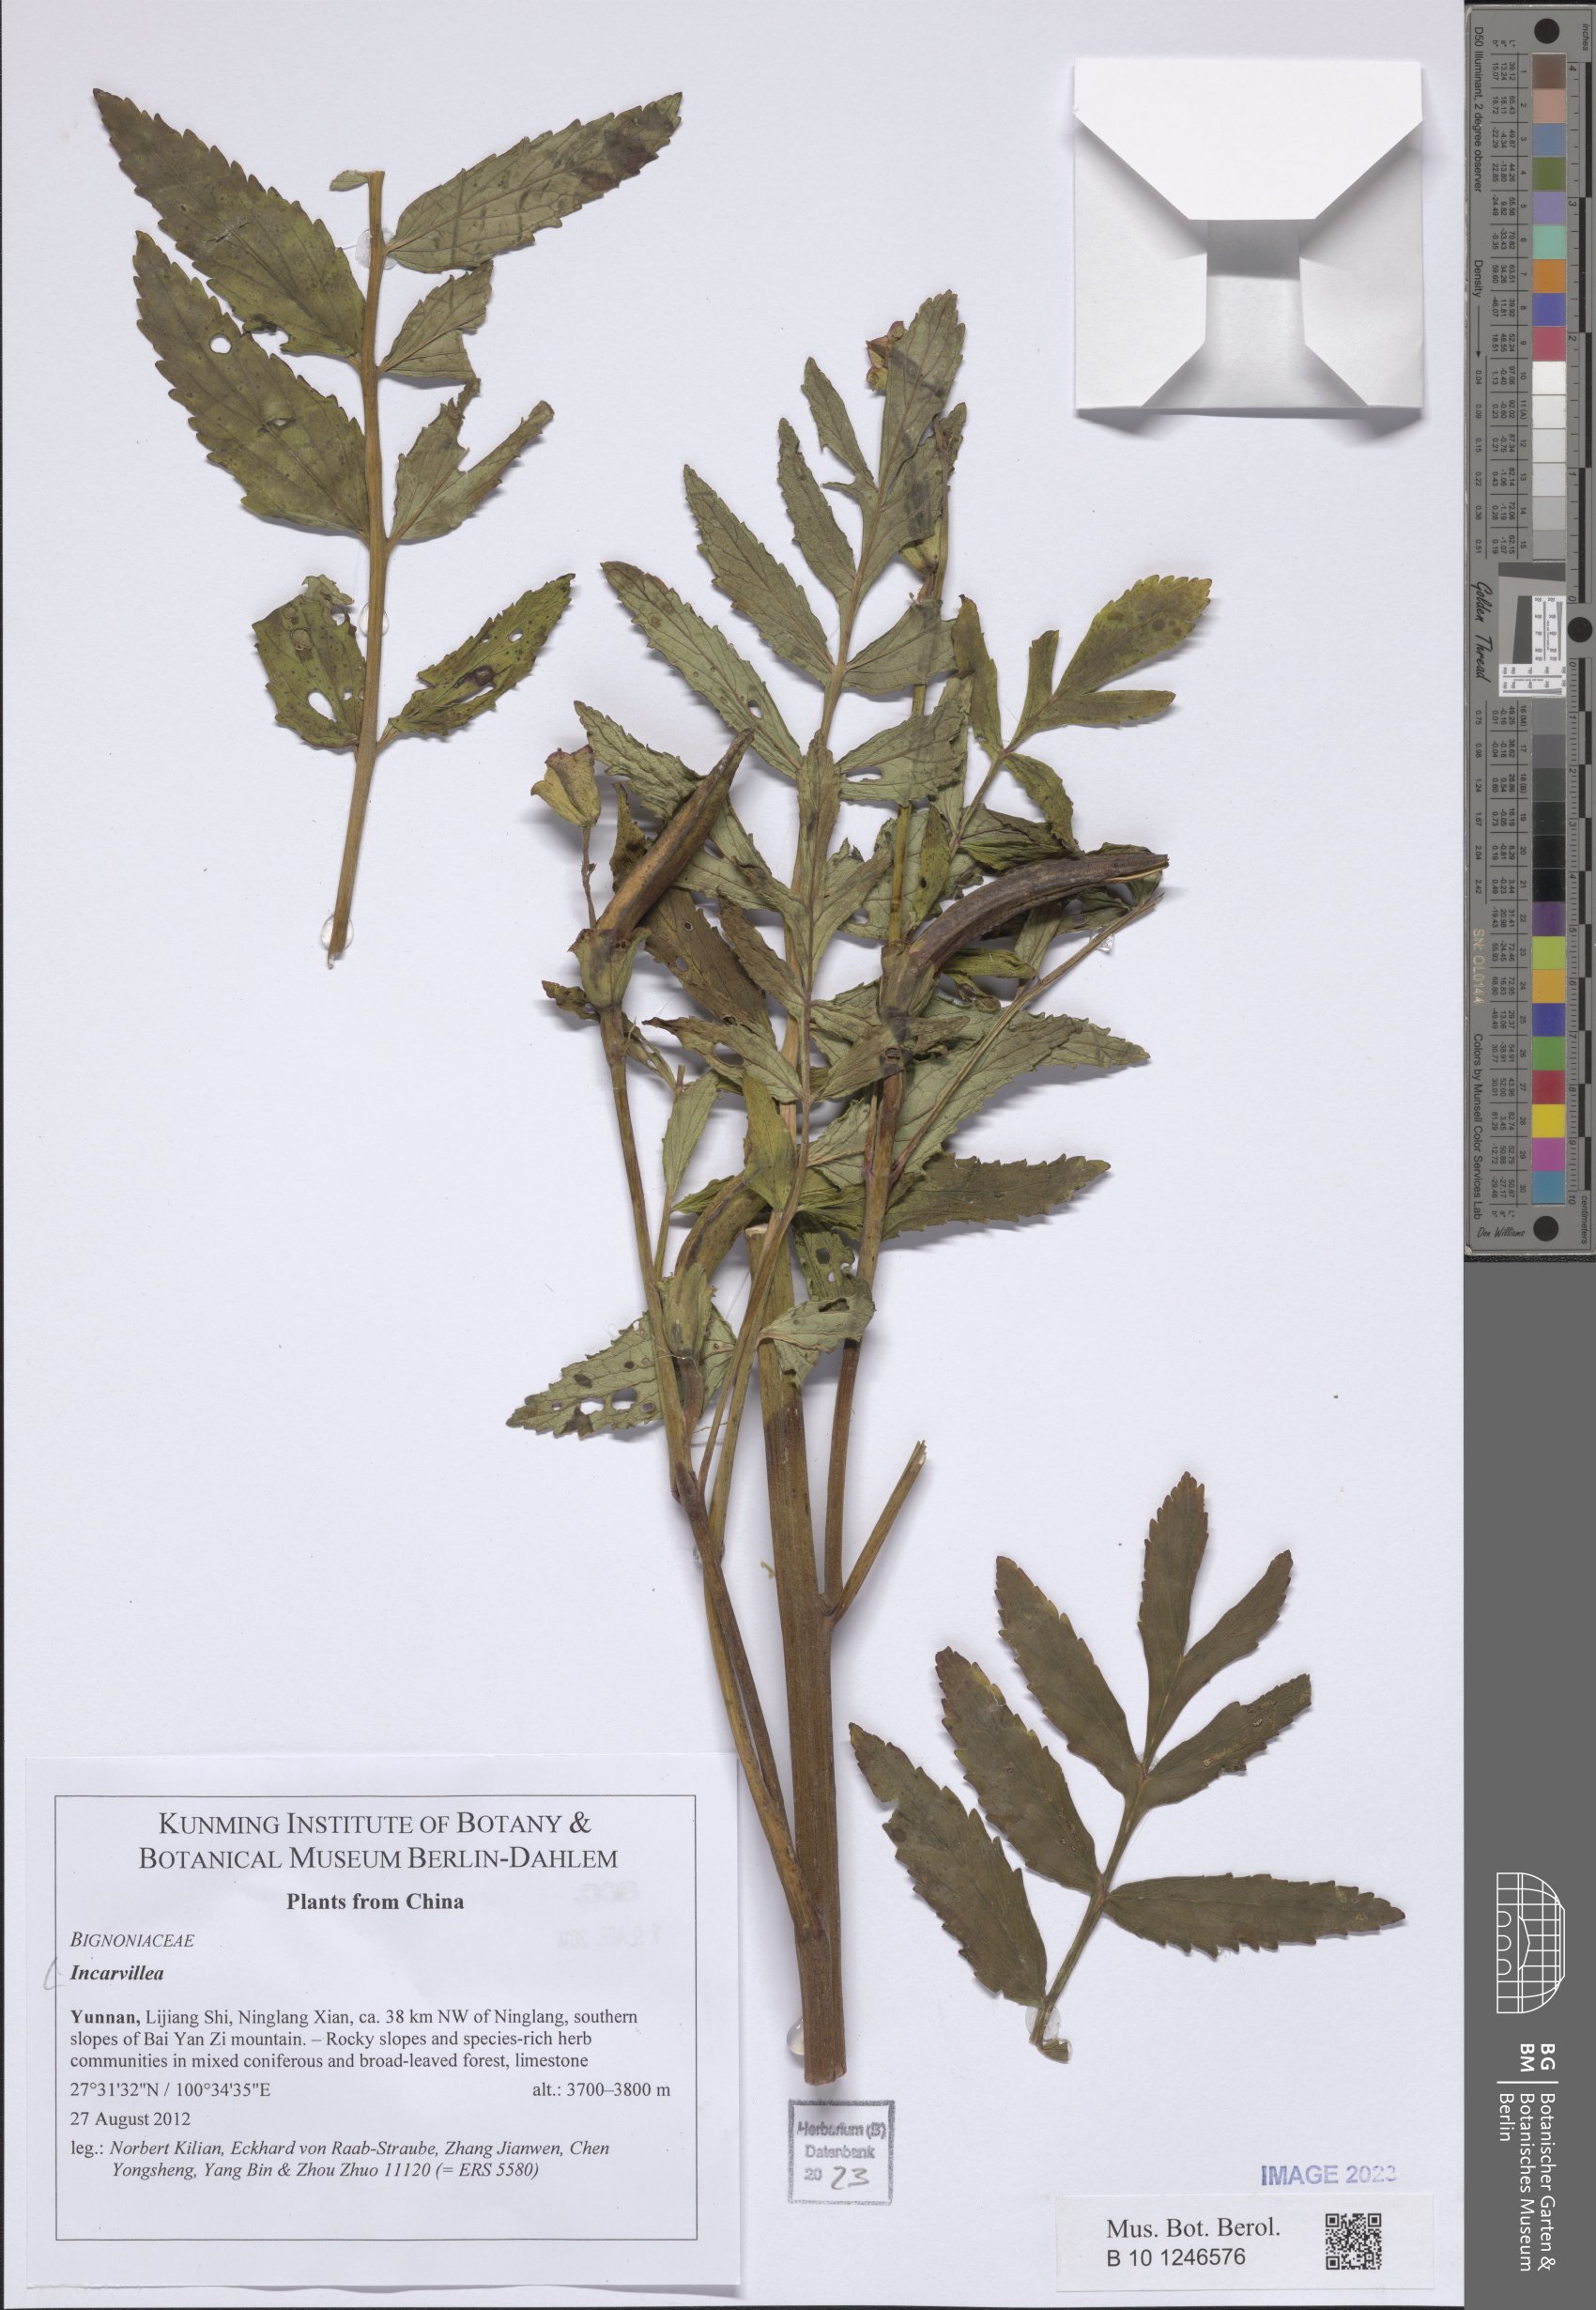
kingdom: Plantae
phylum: Tracheophyta
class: Magnoliopsida
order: Lamiales
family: Bignoniaceae
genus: Incarvillea
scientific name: Incarvillea
